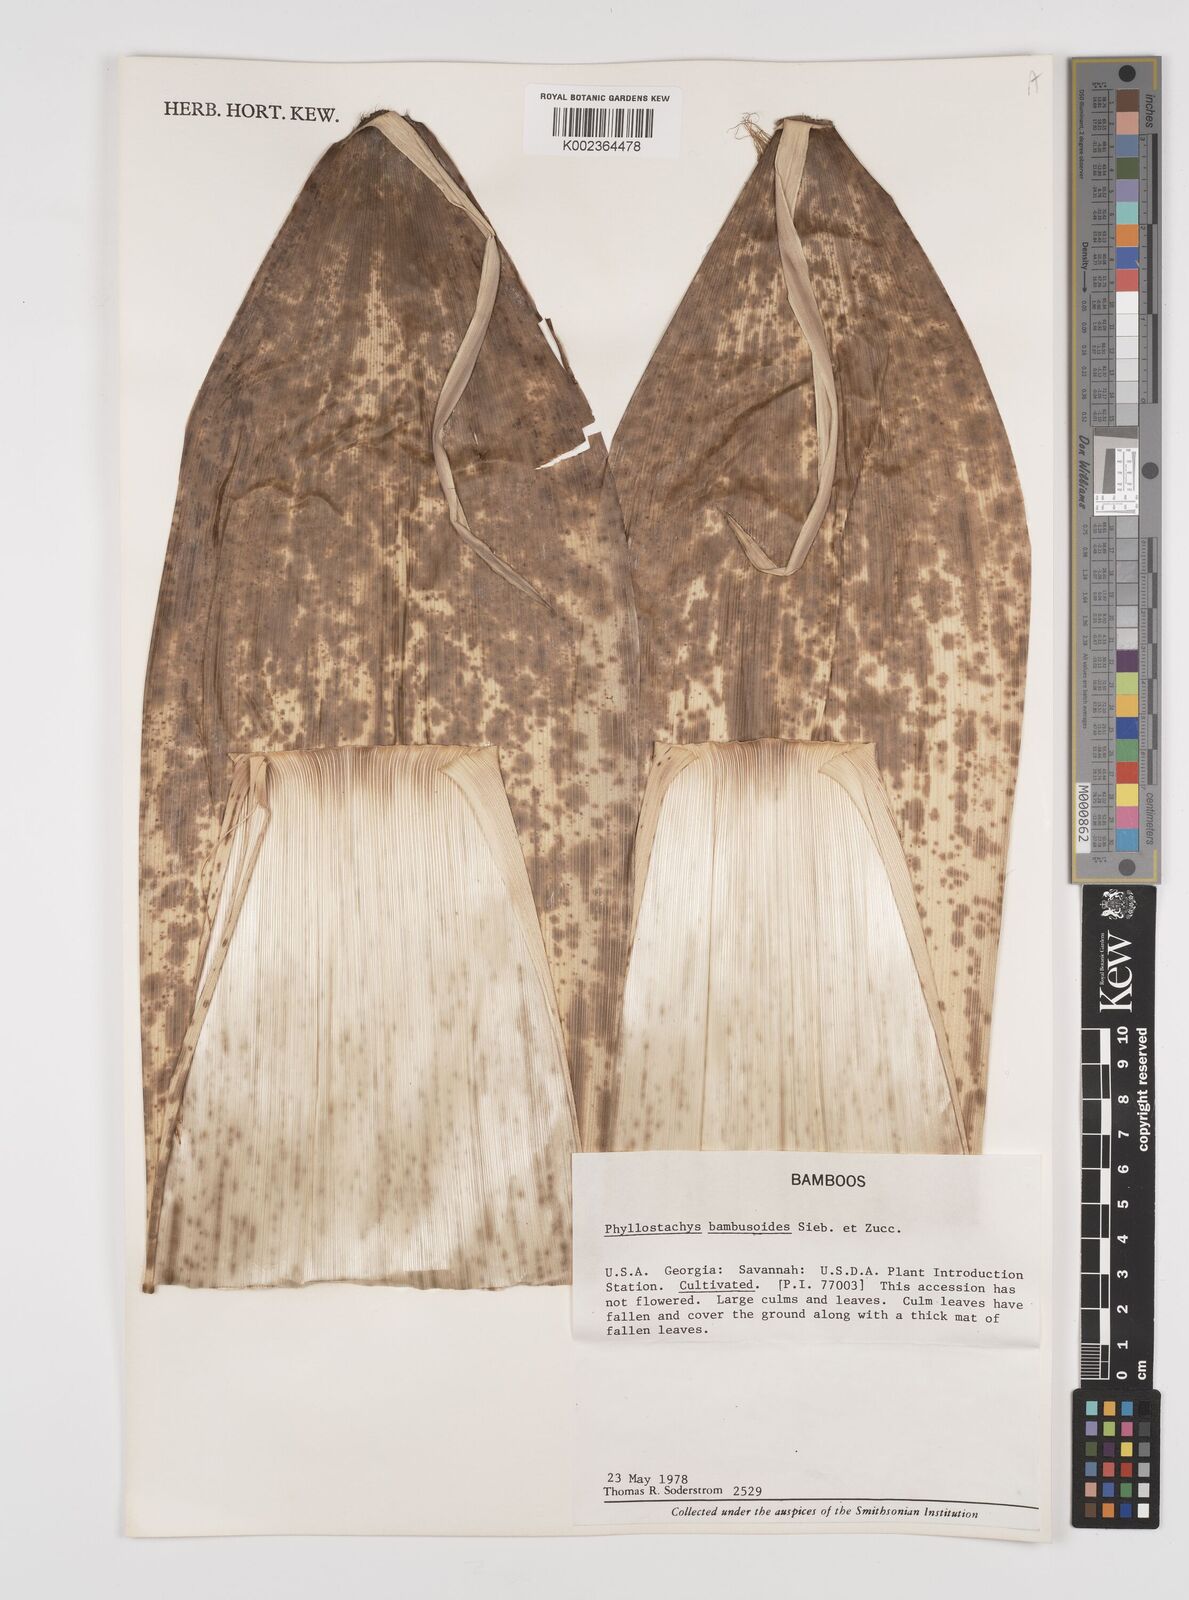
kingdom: Plantae
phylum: Tracheophyta
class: Liliopsida
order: Poales
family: Poaceae
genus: Phyllostachys
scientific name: Phyllostachys reticulata
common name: Bamboo
